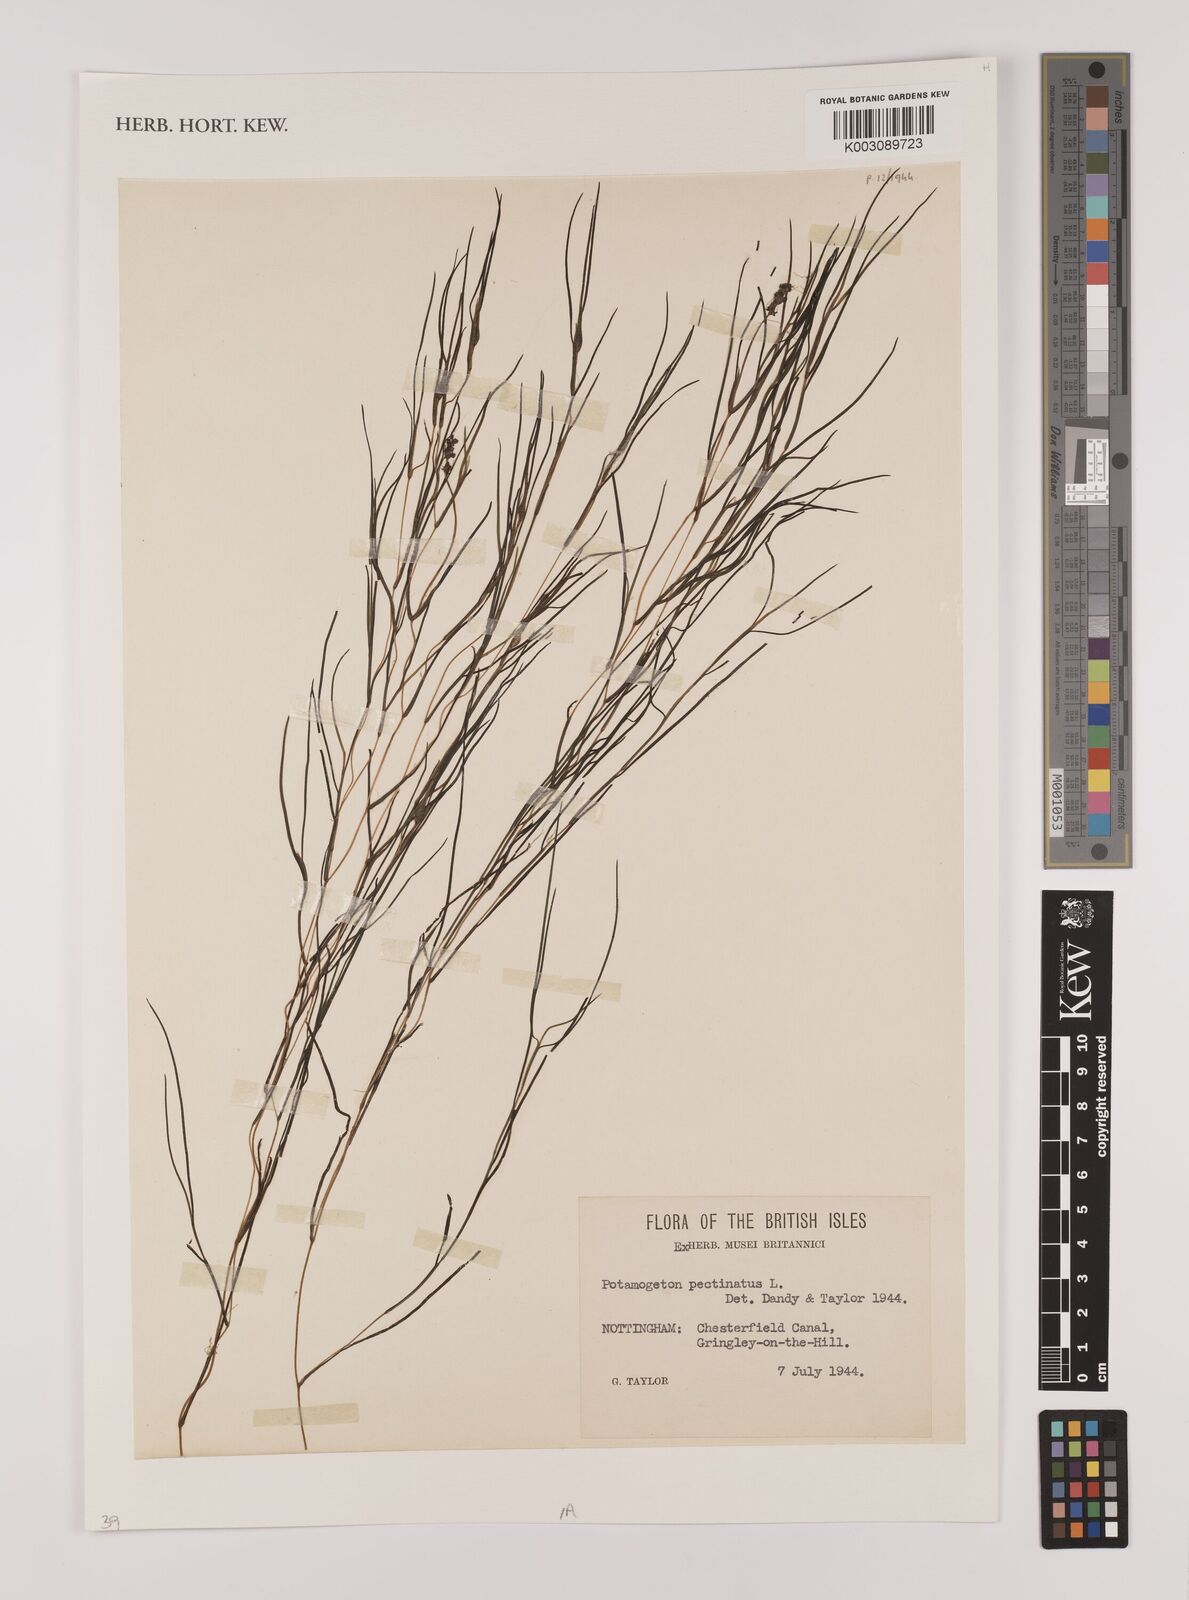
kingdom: Plantae
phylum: Tracheophyta
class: Liliopsida
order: Alismatales
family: Potamogetonaceae
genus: Stuckenia
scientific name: Stuckenia pectinata
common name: Sago pondweed
